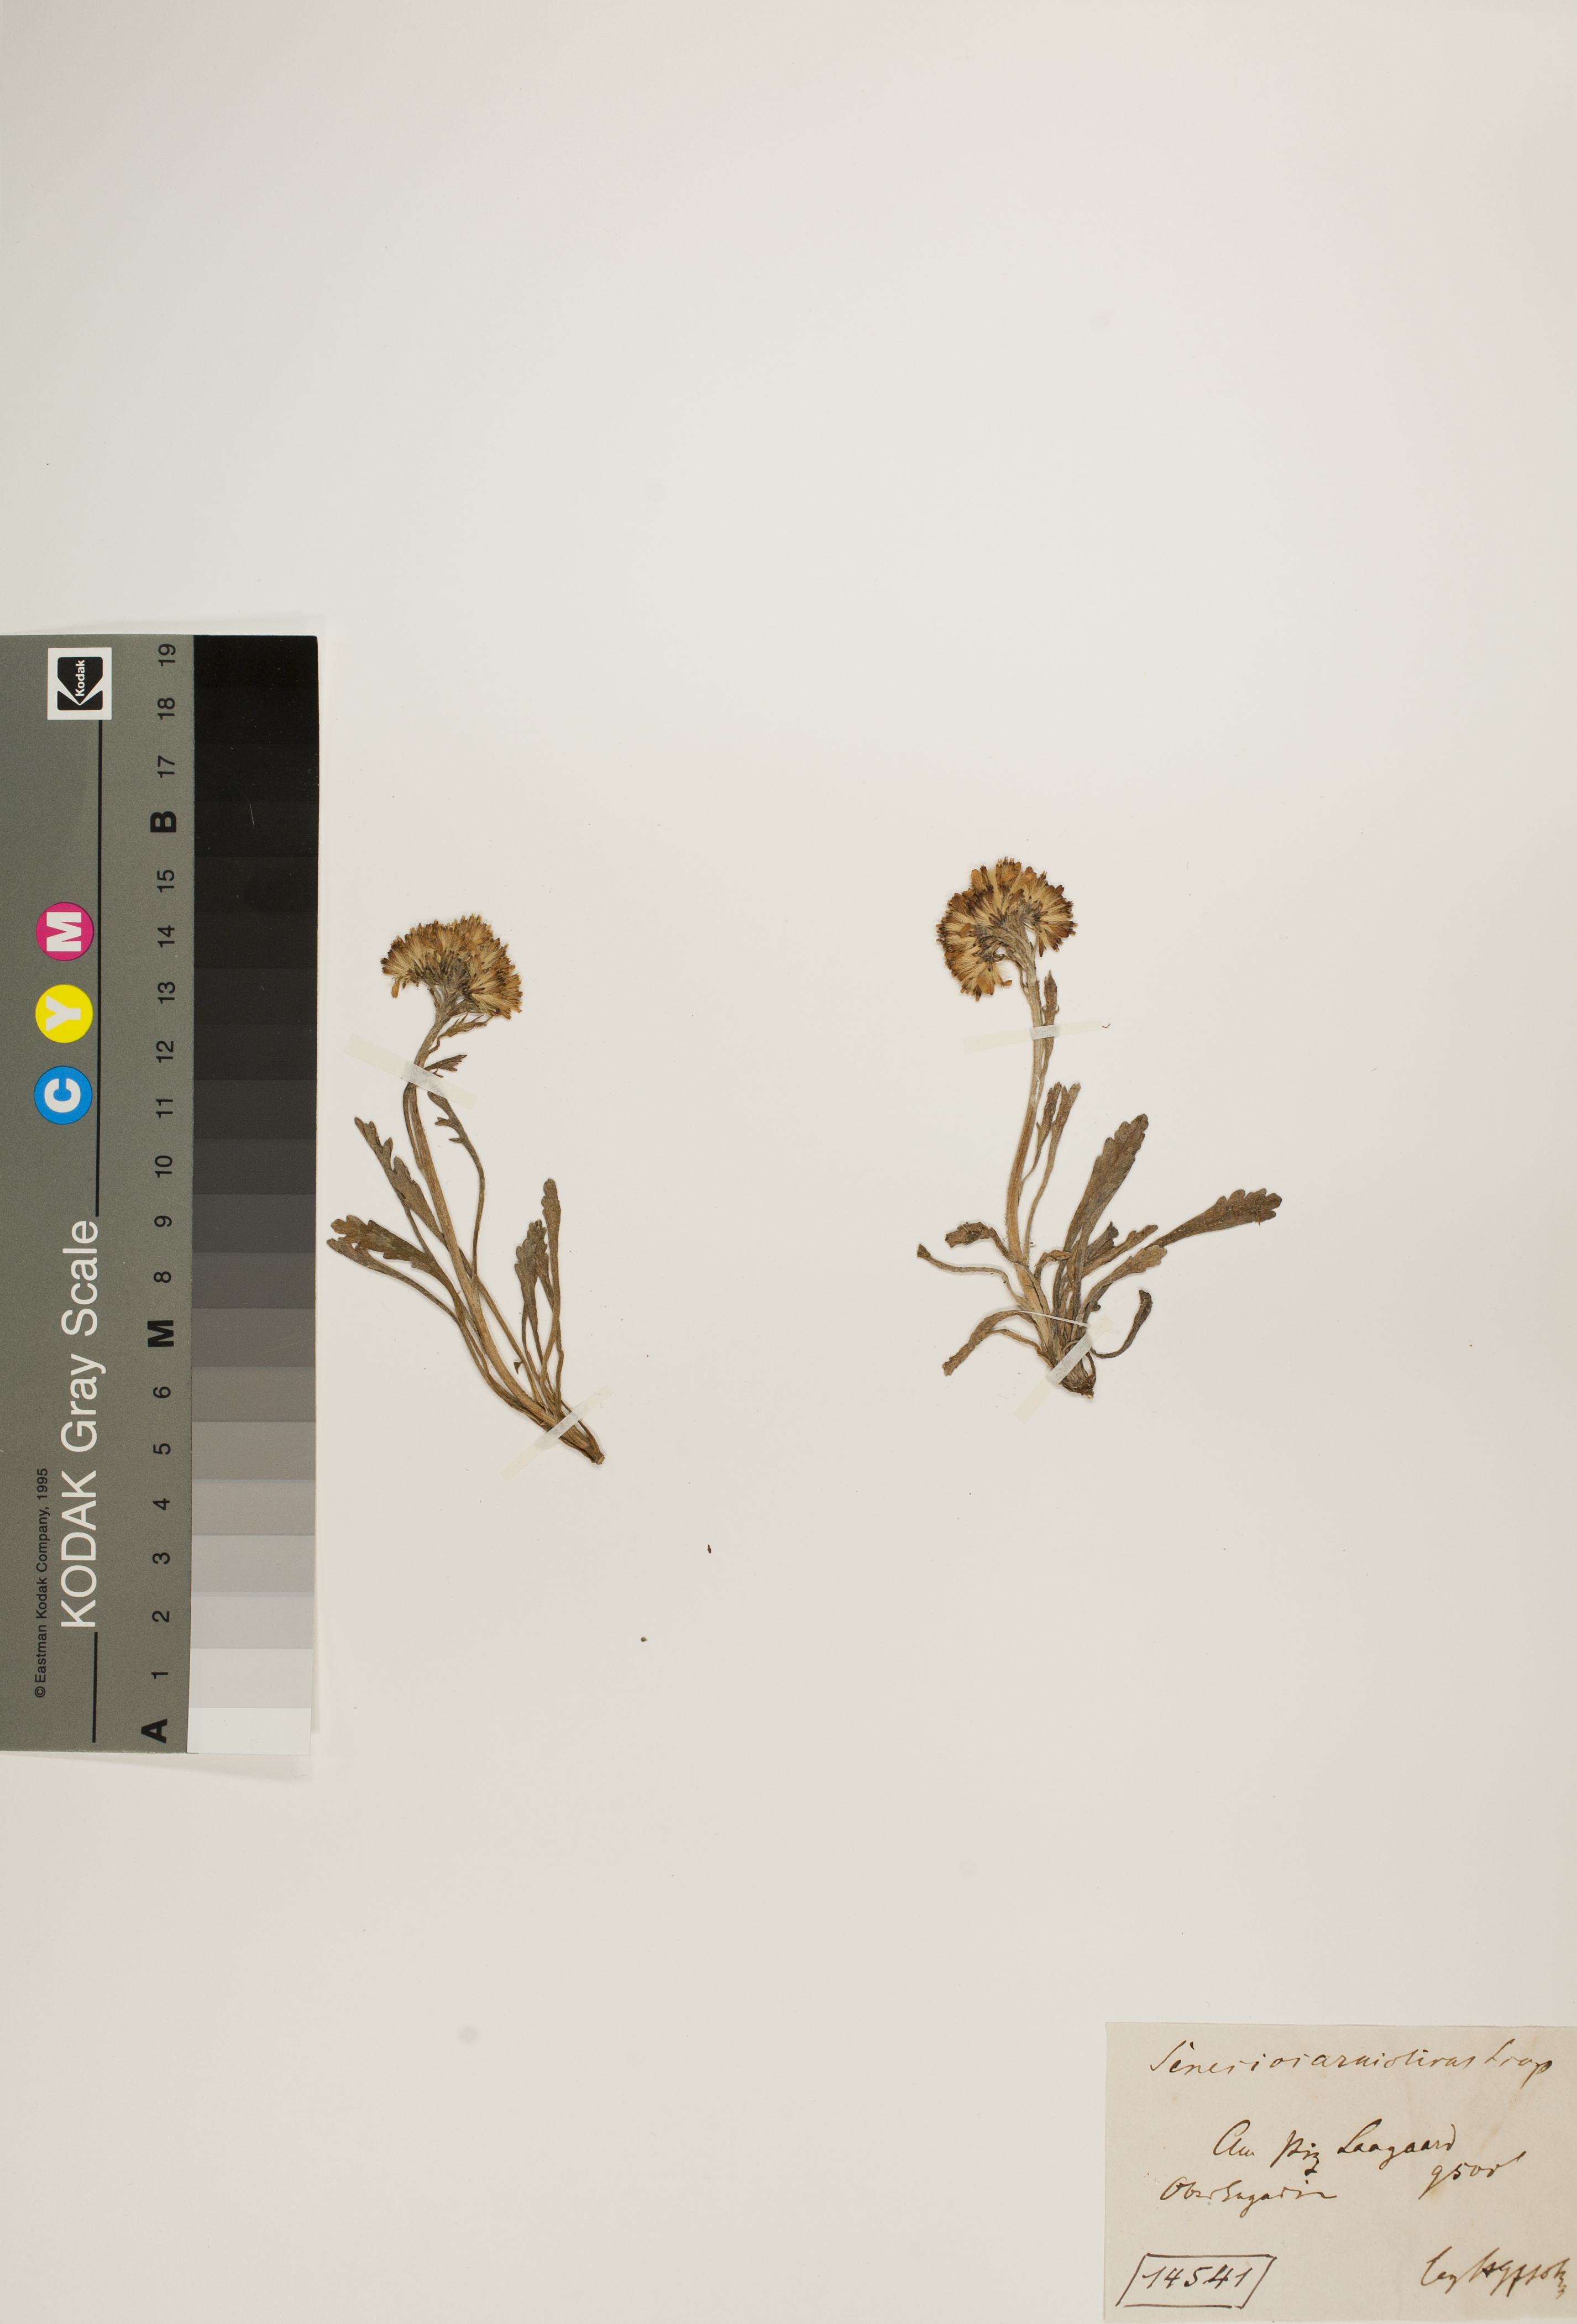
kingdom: Plantae
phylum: Tracheophyta
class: Magnoliopsida
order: Asterales
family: Asteraceae
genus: Jacobaea
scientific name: Jacobaea carniolica
